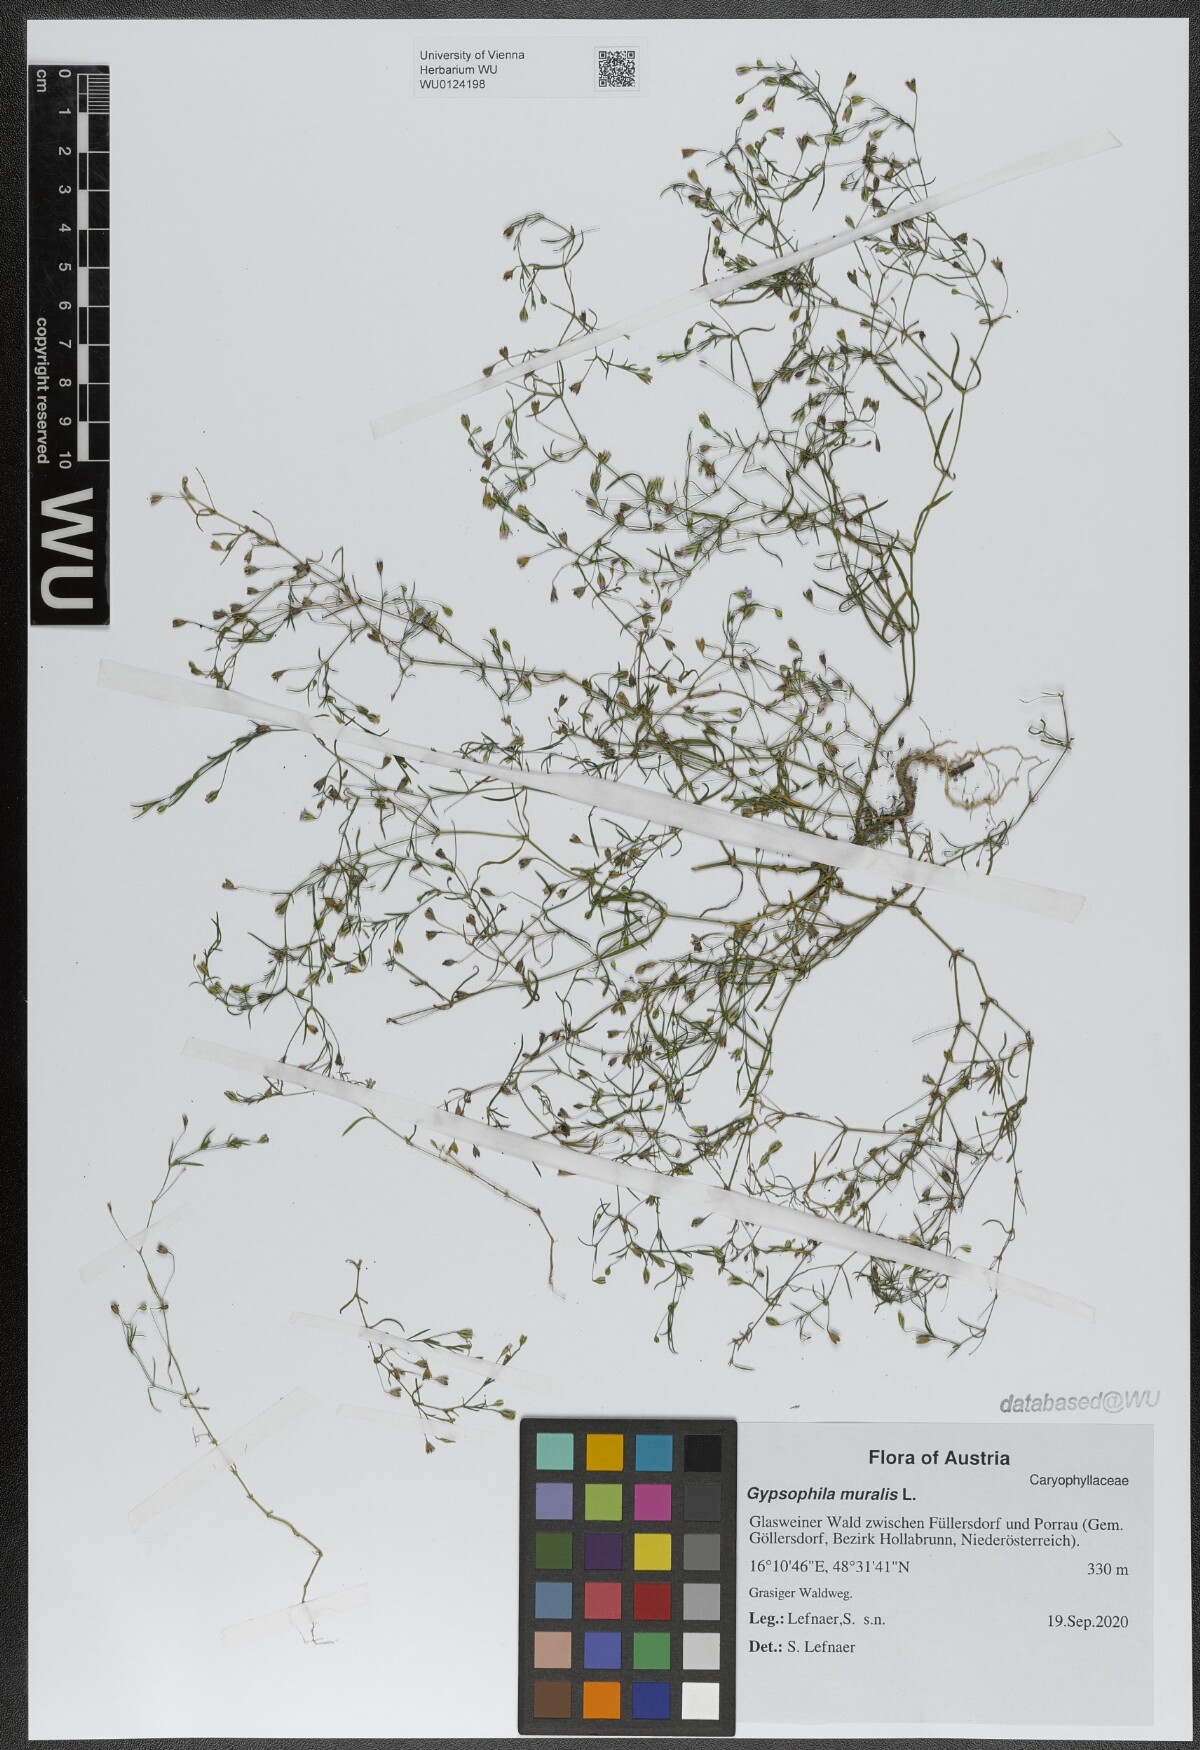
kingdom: Plantae
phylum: Tracheophyta
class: Magnoliopsida
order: Caryophyllales
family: Caryophyllaceae
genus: Psammophiliella
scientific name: Psammophiliella muralis
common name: Cushion baby's-breath
